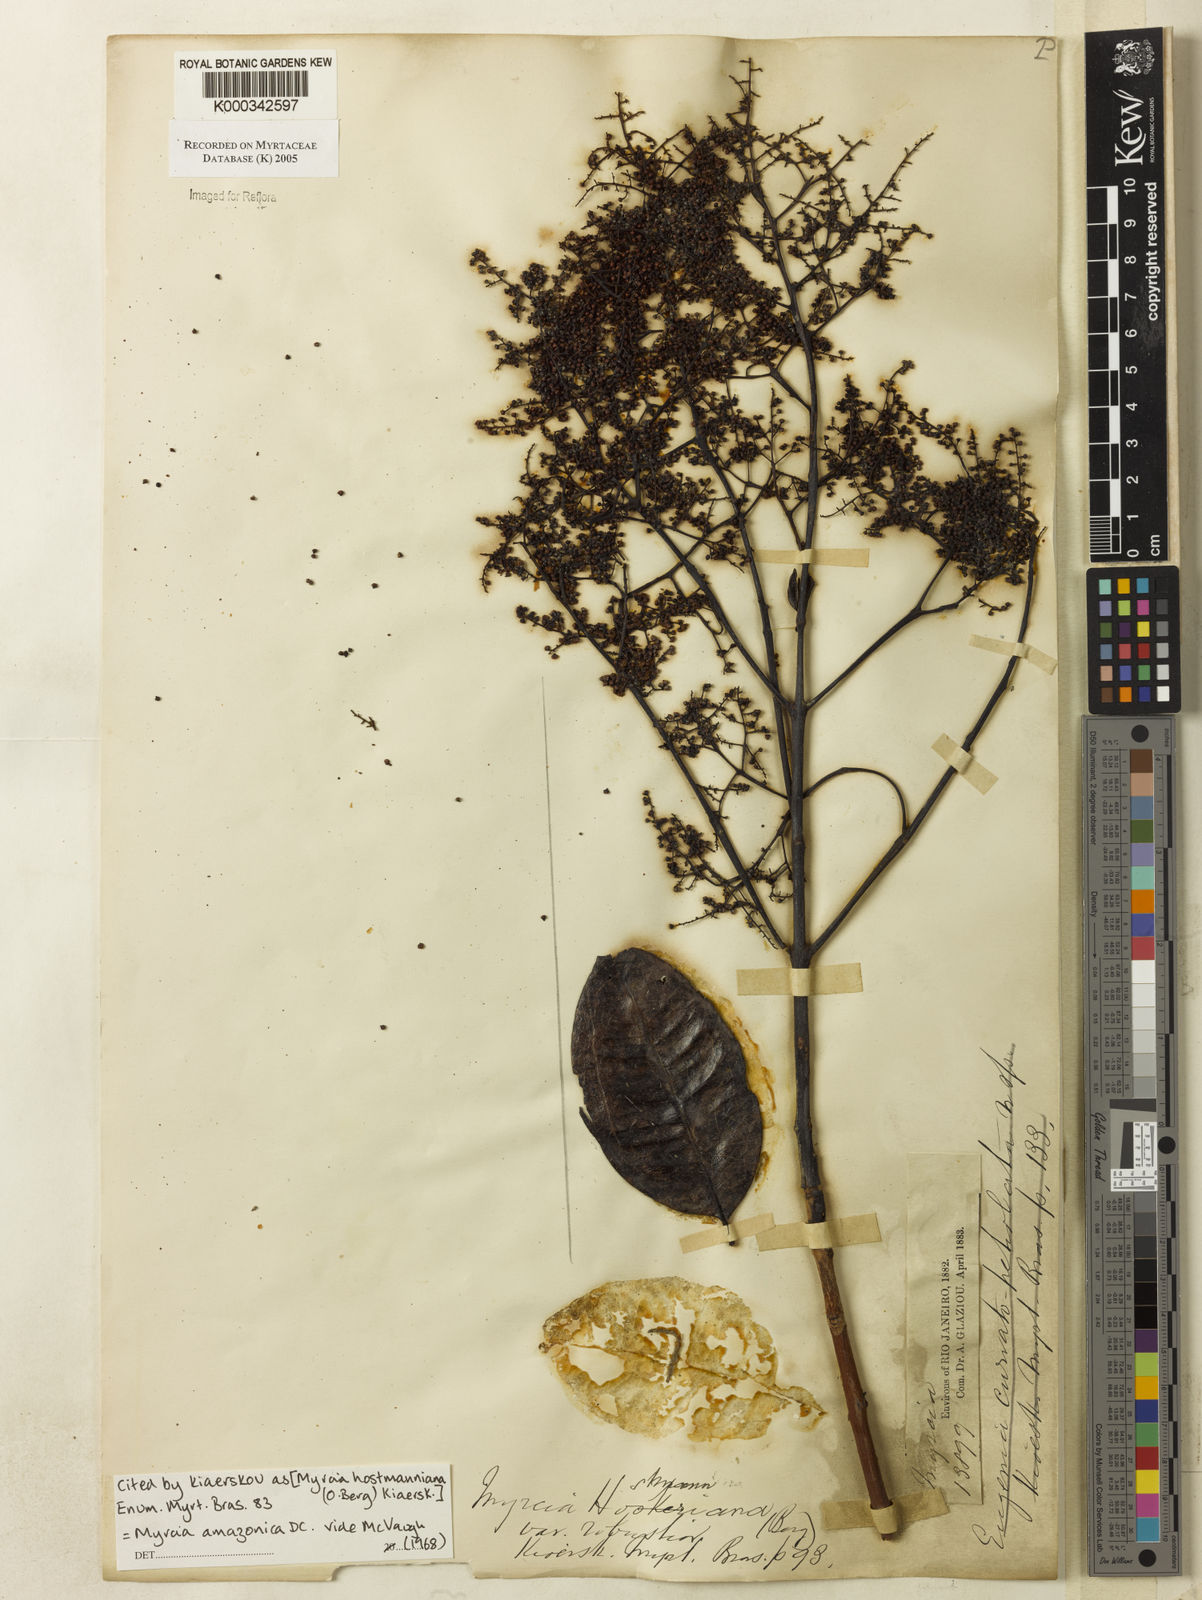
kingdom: Plantae
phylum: Tracheophyta
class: Magnoliopsida
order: Myrtales
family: Myrtaceae
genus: Myrcia
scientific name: Myrcia amazonica
